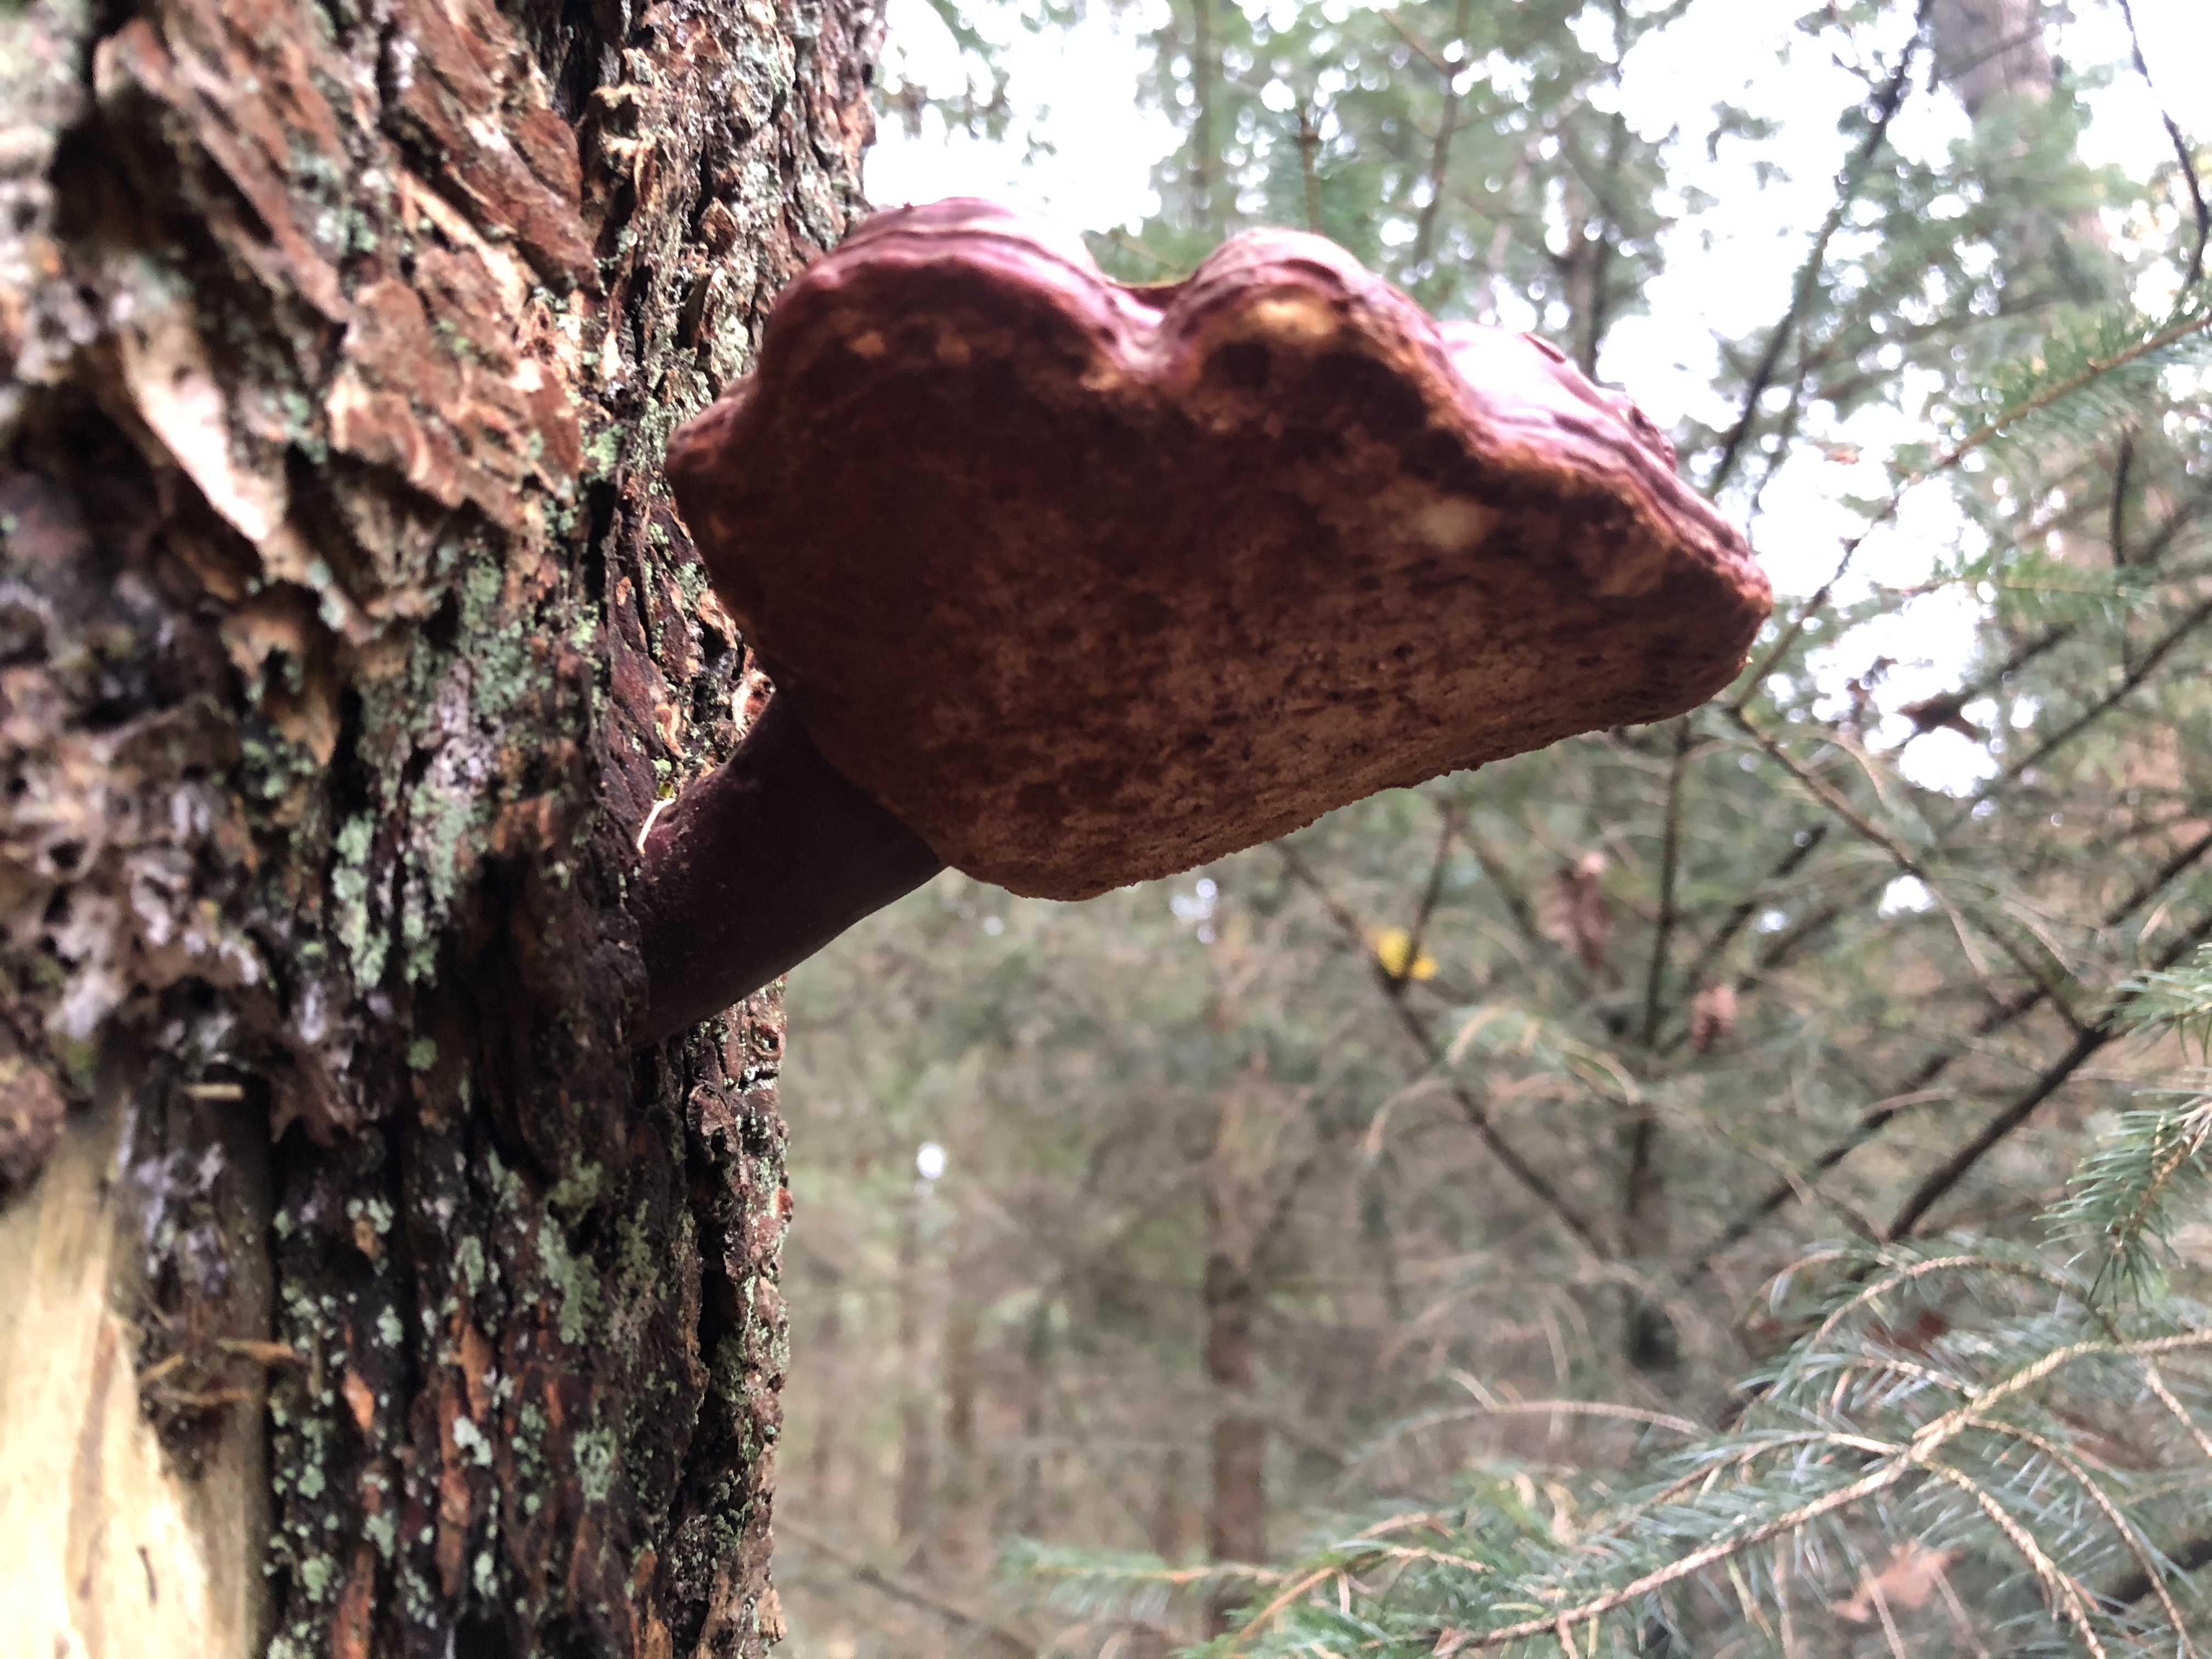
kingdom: Fungi
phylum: Basidiomycota
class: Agaricomycetes
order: Polyporales
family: Polyporaceae
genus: Ganoderma
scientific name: Ganoderma lucidum
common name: skinnende lakporesvamp
